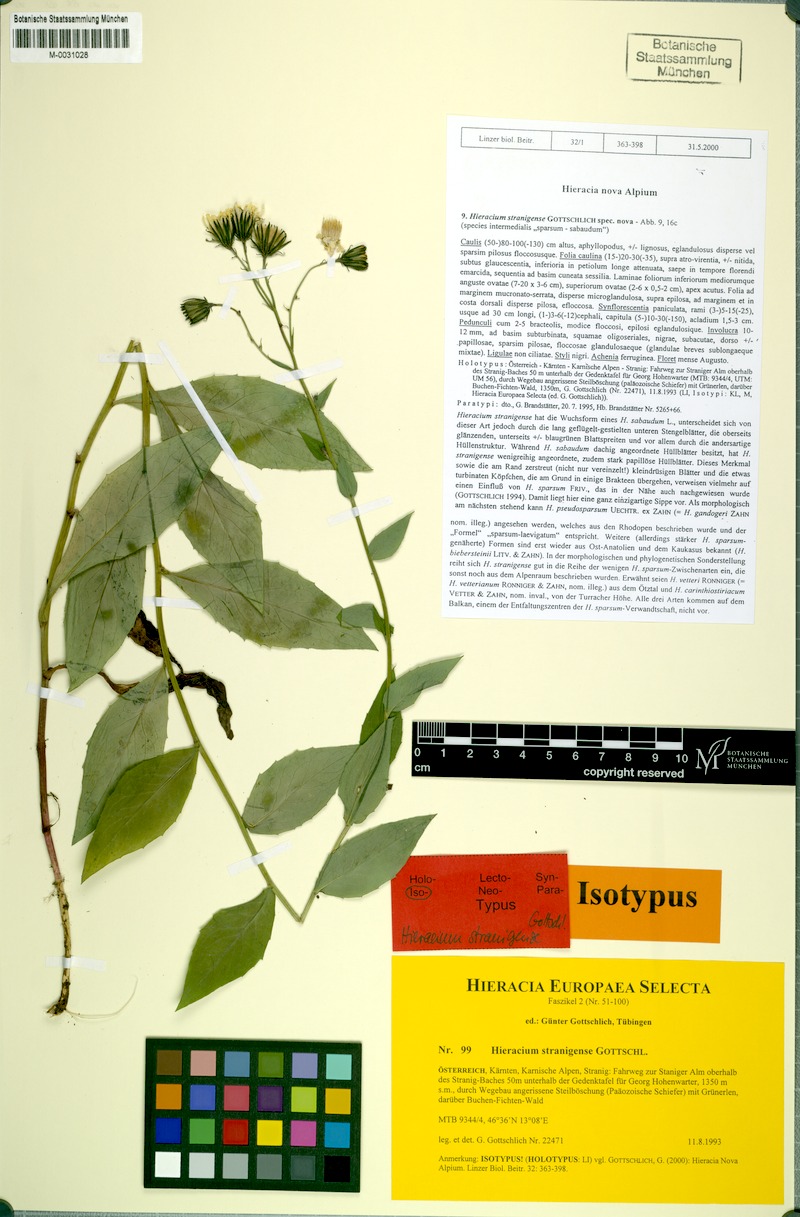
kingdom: Plantae
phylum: Tracheophyta
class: Magnoliopsida
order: Asterales
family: Asteraceae
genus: Hieracium
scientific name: Hieracium stranigense
